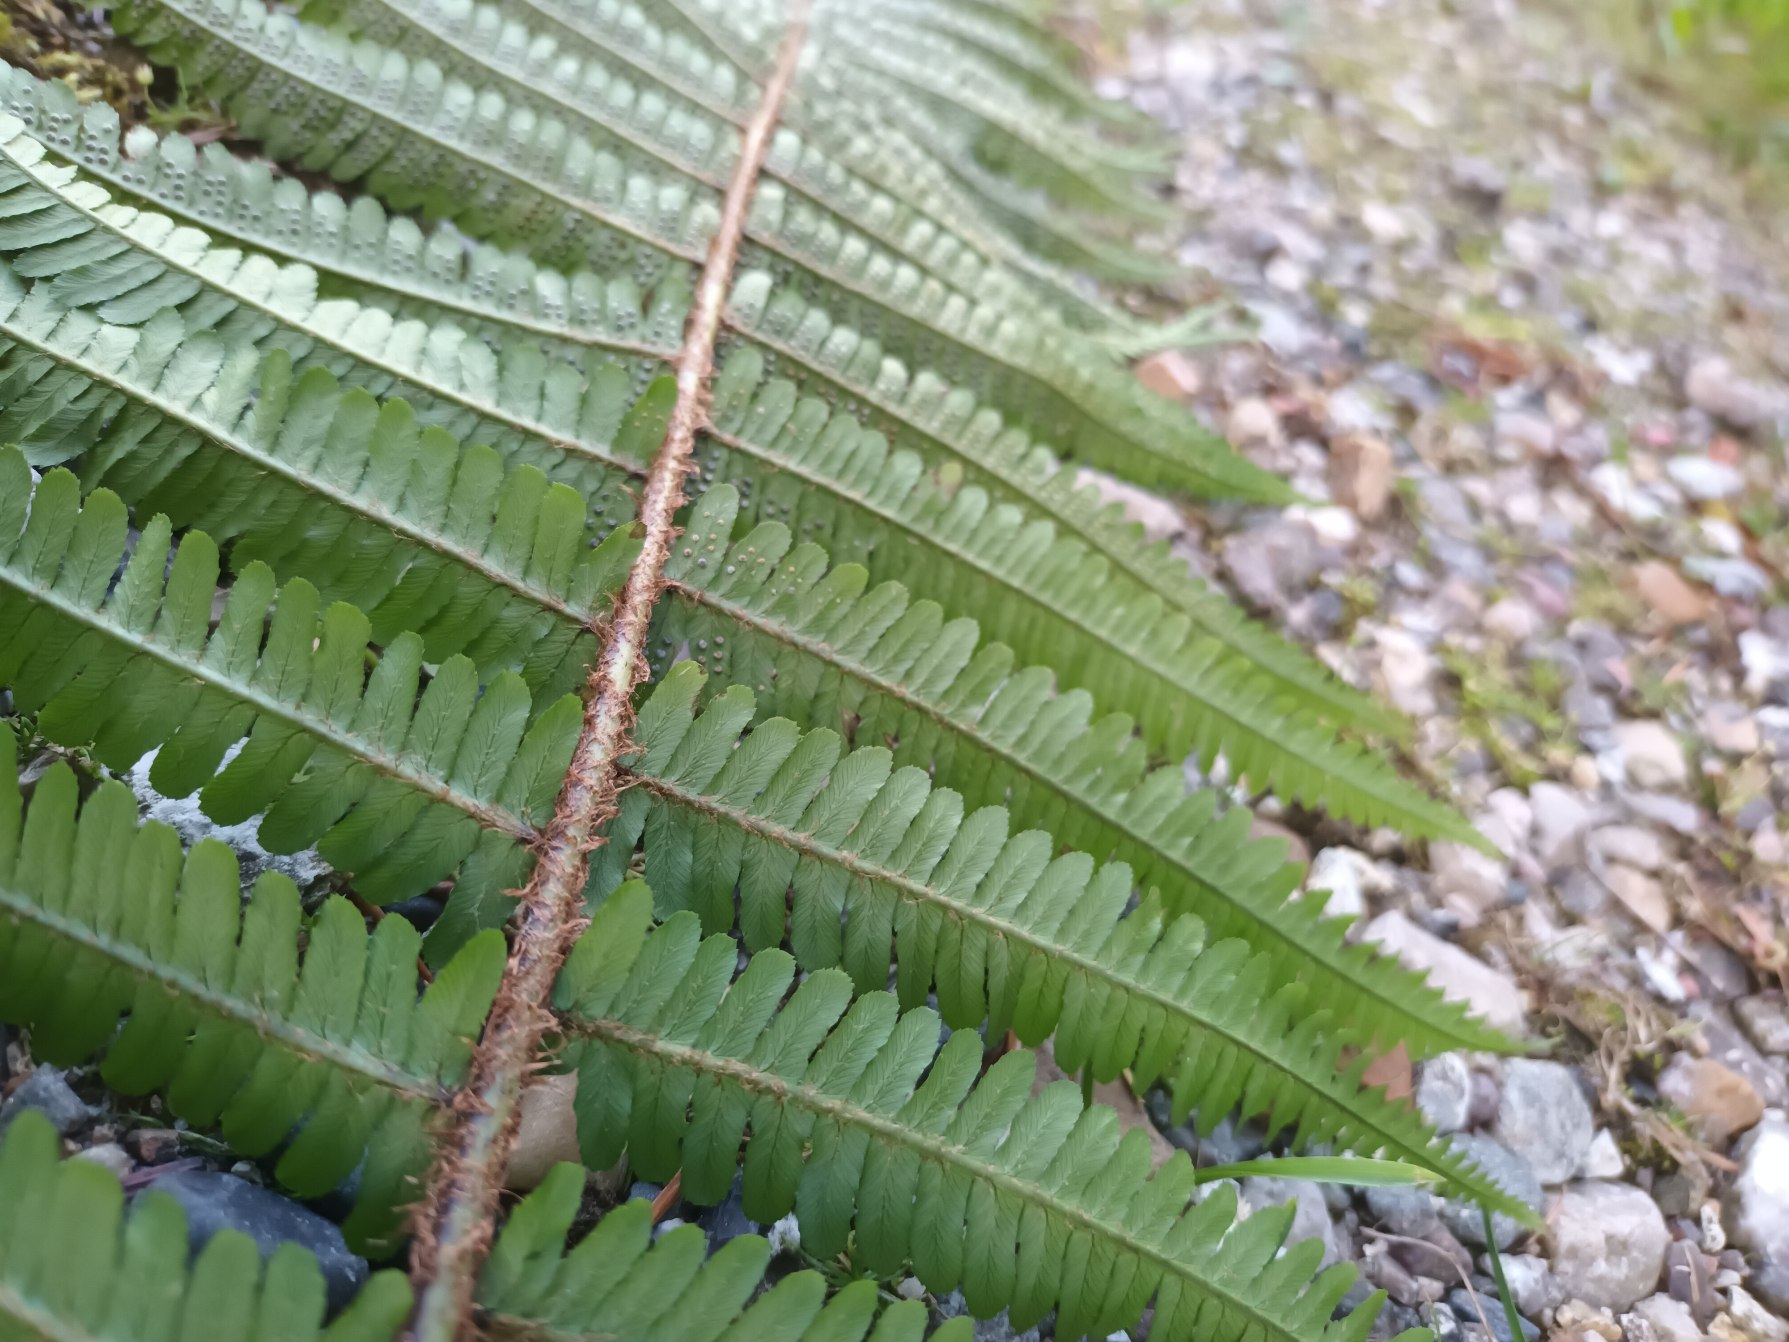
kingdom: Plantae
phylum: Tracheophyta
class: Polypodiopsida
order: Polypodiales
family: Dryopteridaceae
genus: Dryopteris
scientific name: Dryopteris cambrensis
